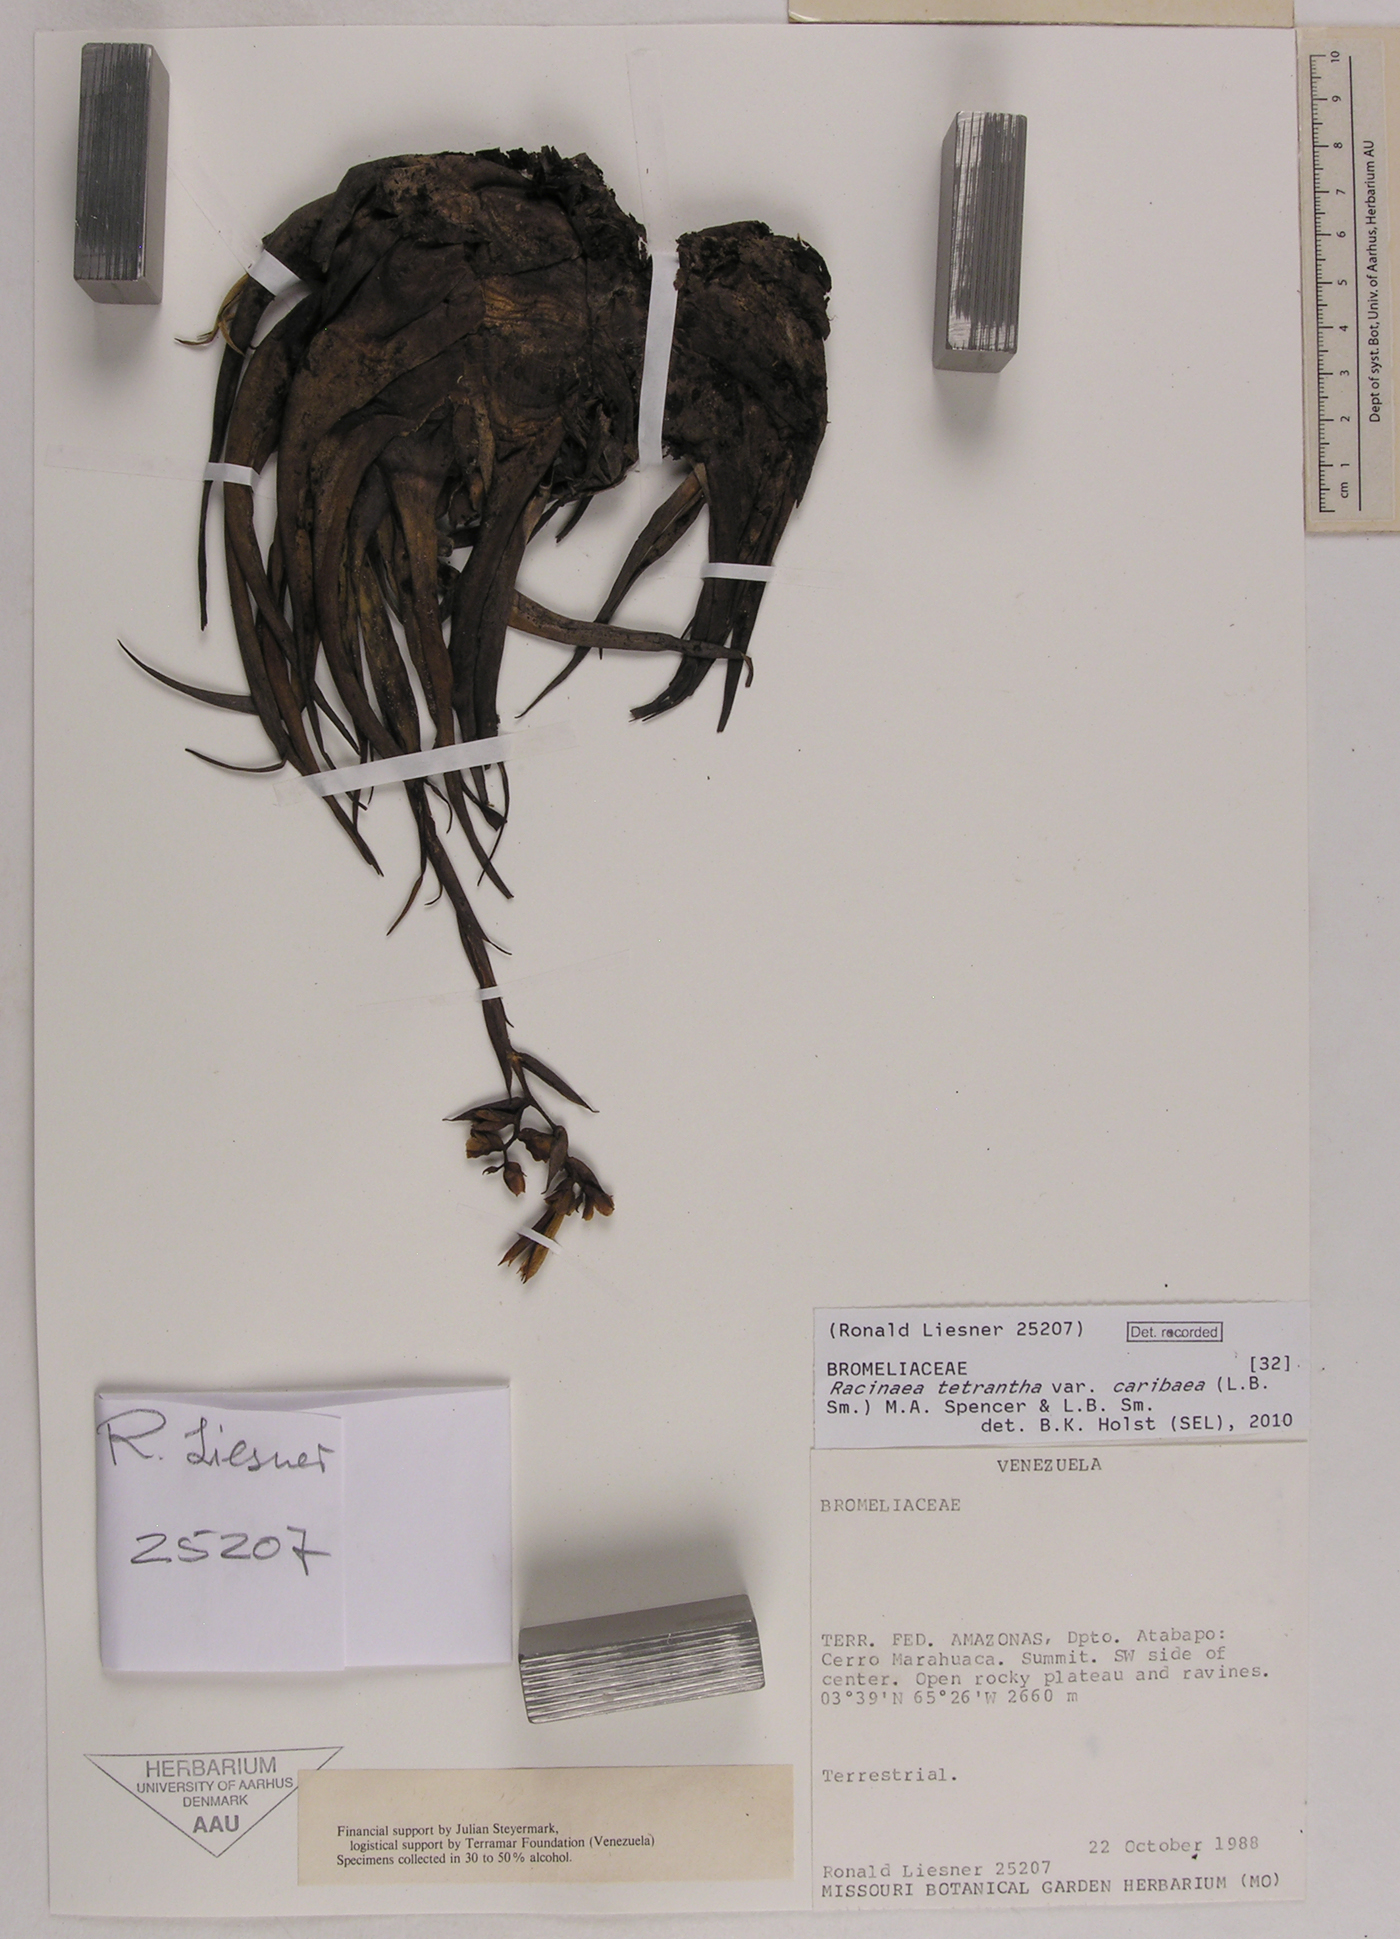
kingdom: Plantae
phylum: Tracheophyta
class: Liliopsida
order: Poales
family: Bromeliaceae
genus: Racinaea
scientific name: Racinaea tetrantha
